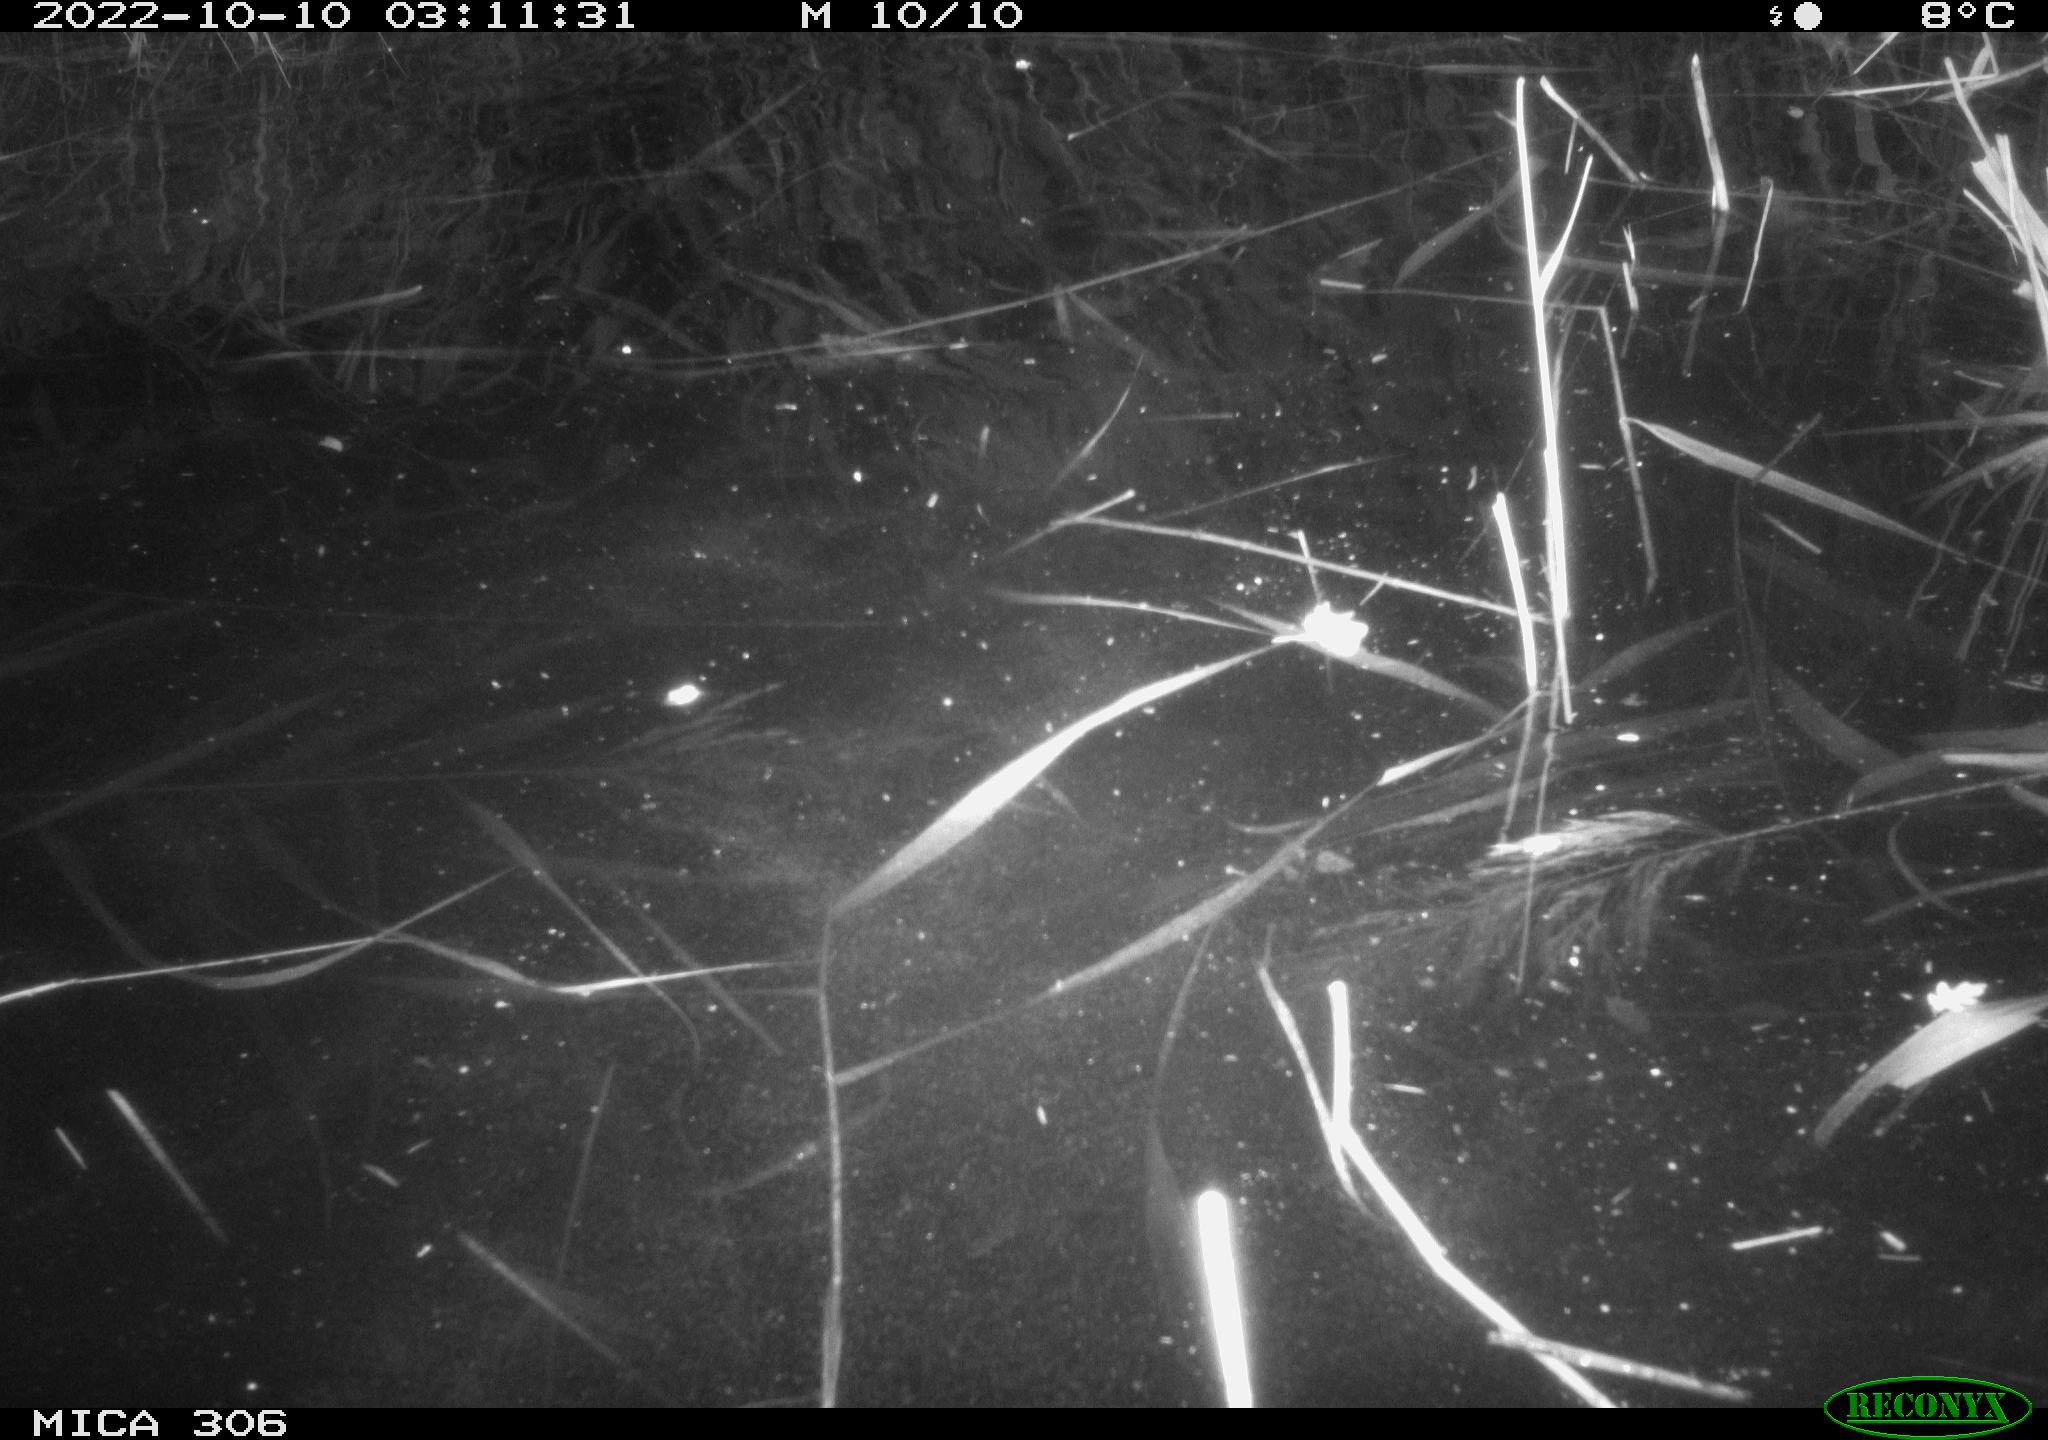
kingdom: Animalia
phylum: Chordata
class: Mammalia
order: Rodentia
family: Muridae
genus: Rattus
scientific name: Rattus norvegicus
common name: Brown rat
